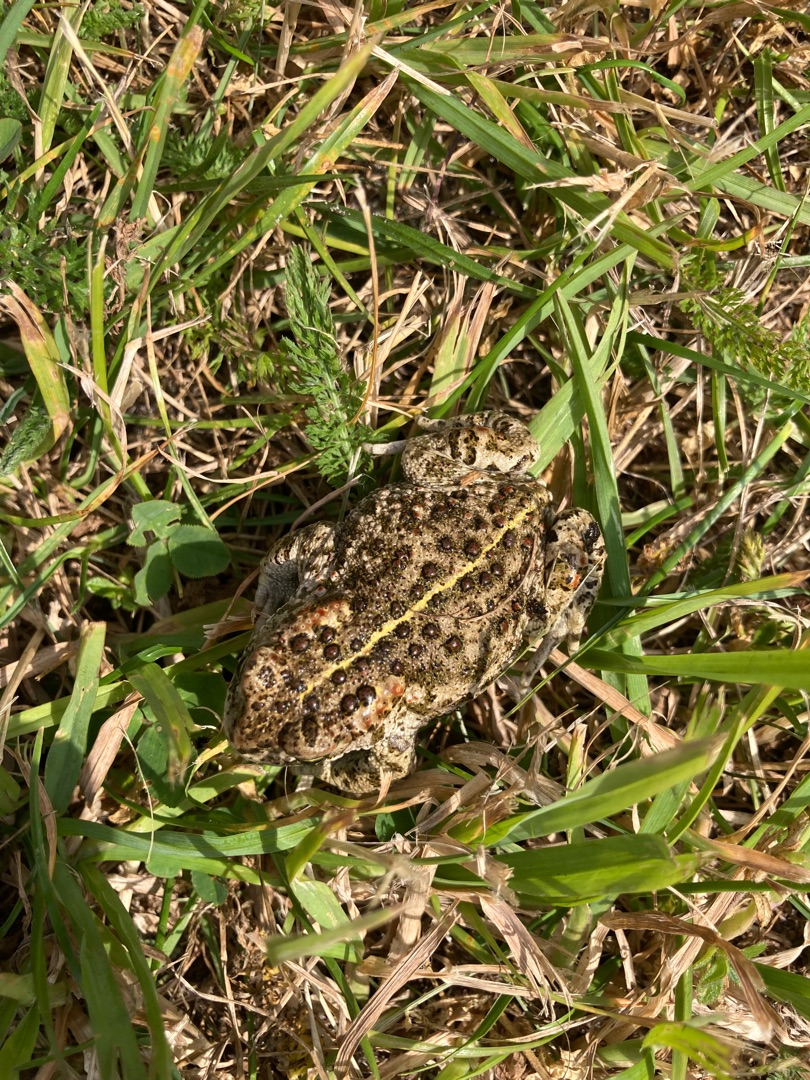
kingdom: Animalia
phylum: Chordata
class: Amphibia
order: Anura
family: Bufonidae
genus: Epidalea
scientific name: Epidalea calamita
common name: Strandtudse
